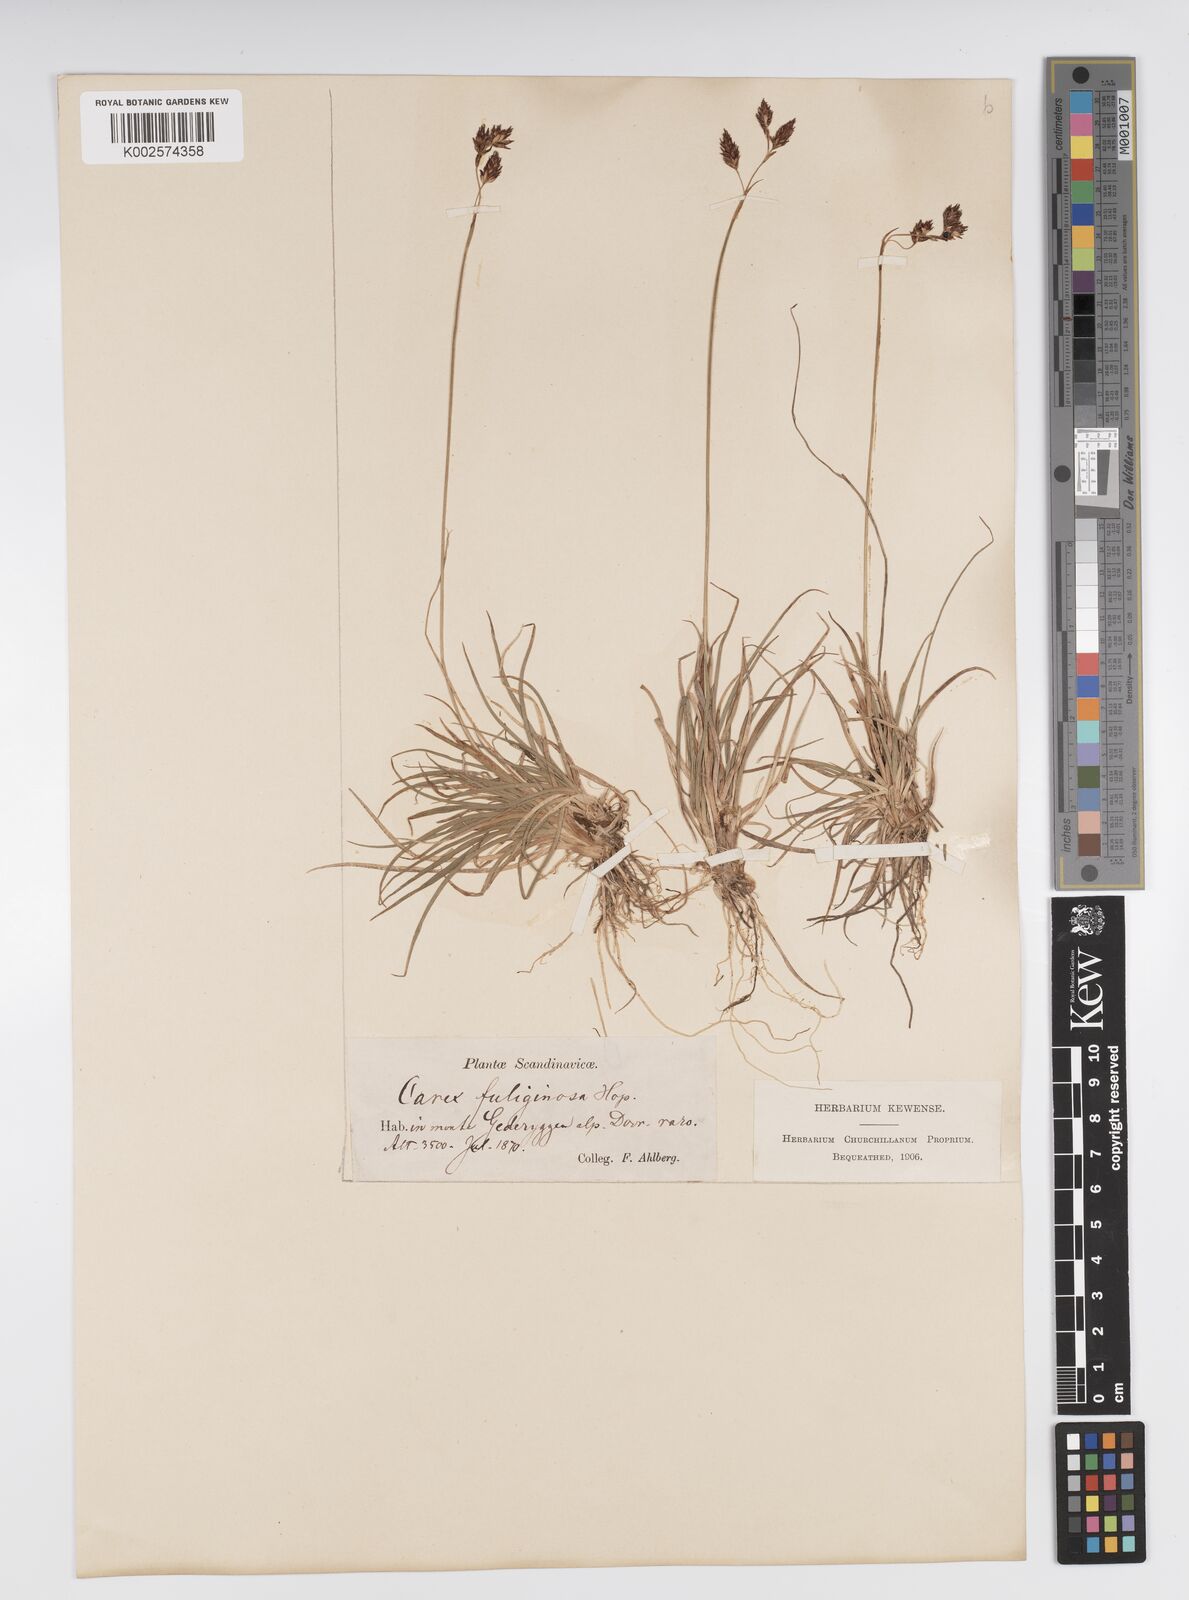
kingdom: Plantae
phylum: Tracheophyta
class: Liliopsida
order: Poales
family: Cyperaceae
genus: Carex
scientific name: Carex fuliginosa
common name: Few-flowered sedge
